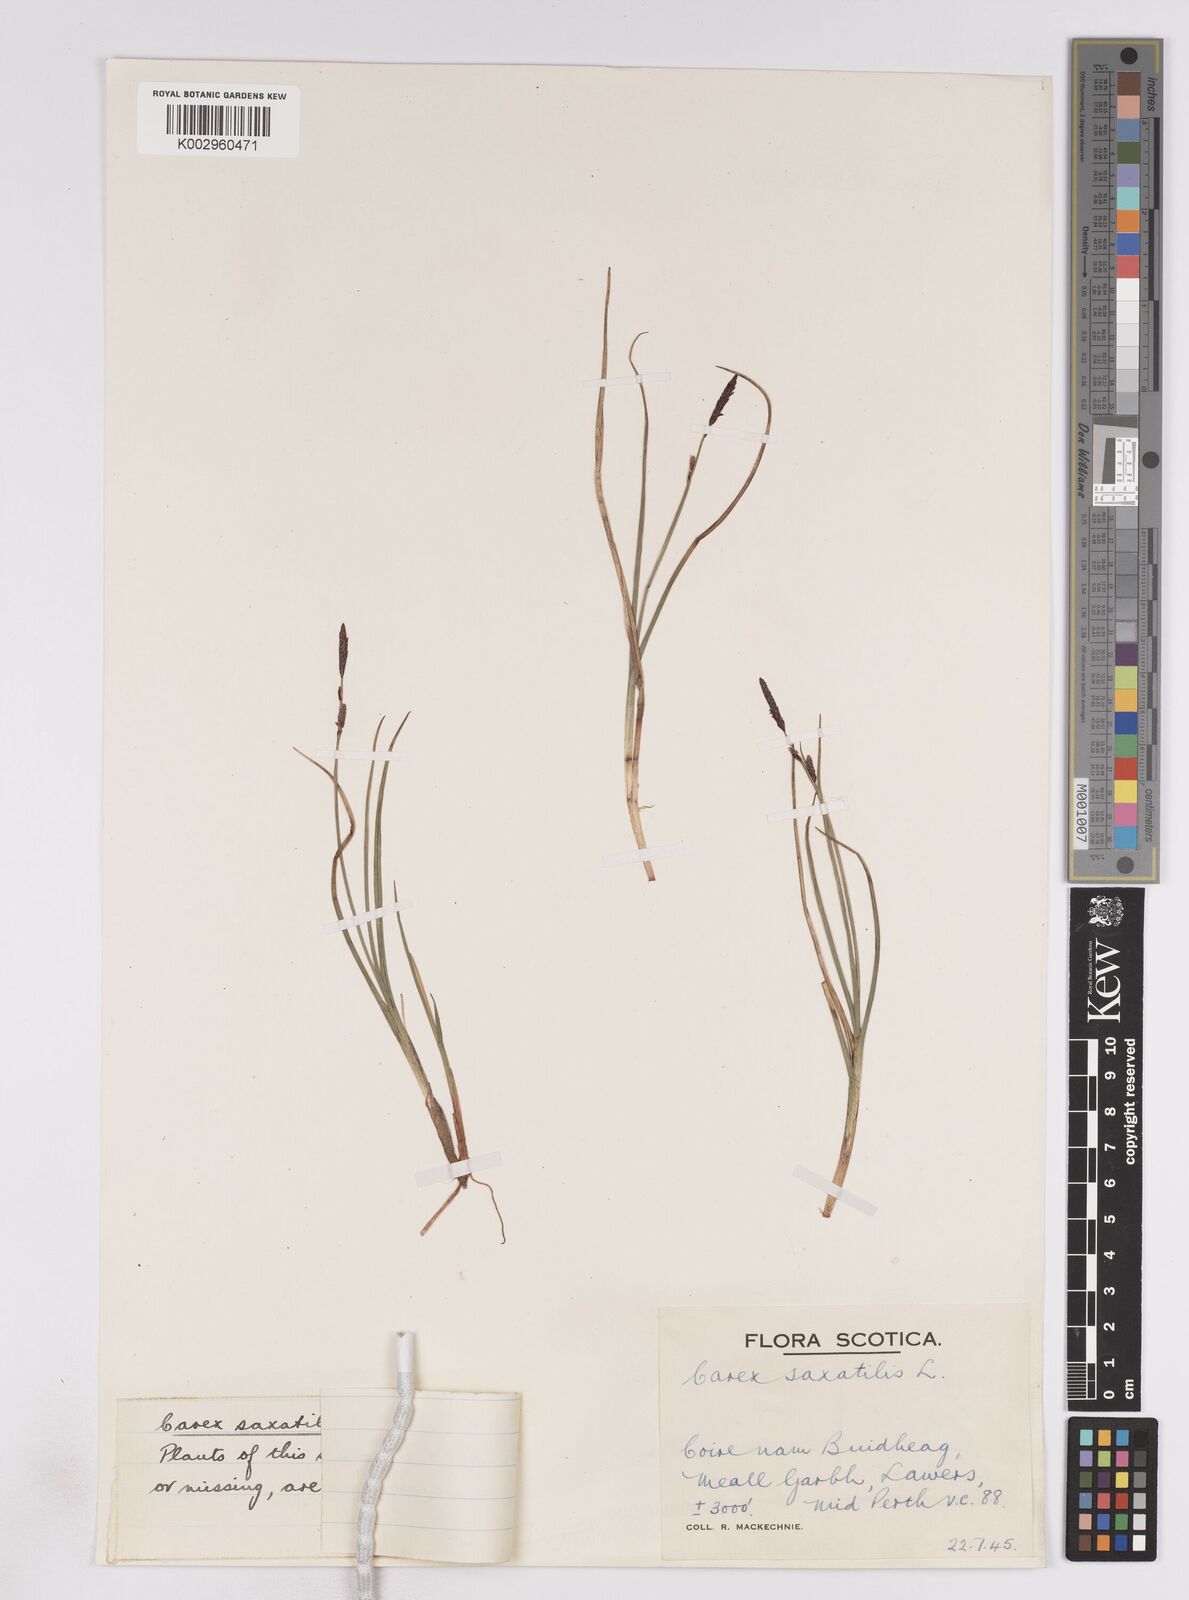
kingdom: Plantae
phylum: Tracheophyta
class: Liliopsida
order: Poales
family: Cyperaceae
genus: Carex
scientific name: Carex saxatilis
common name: Russet sedge
